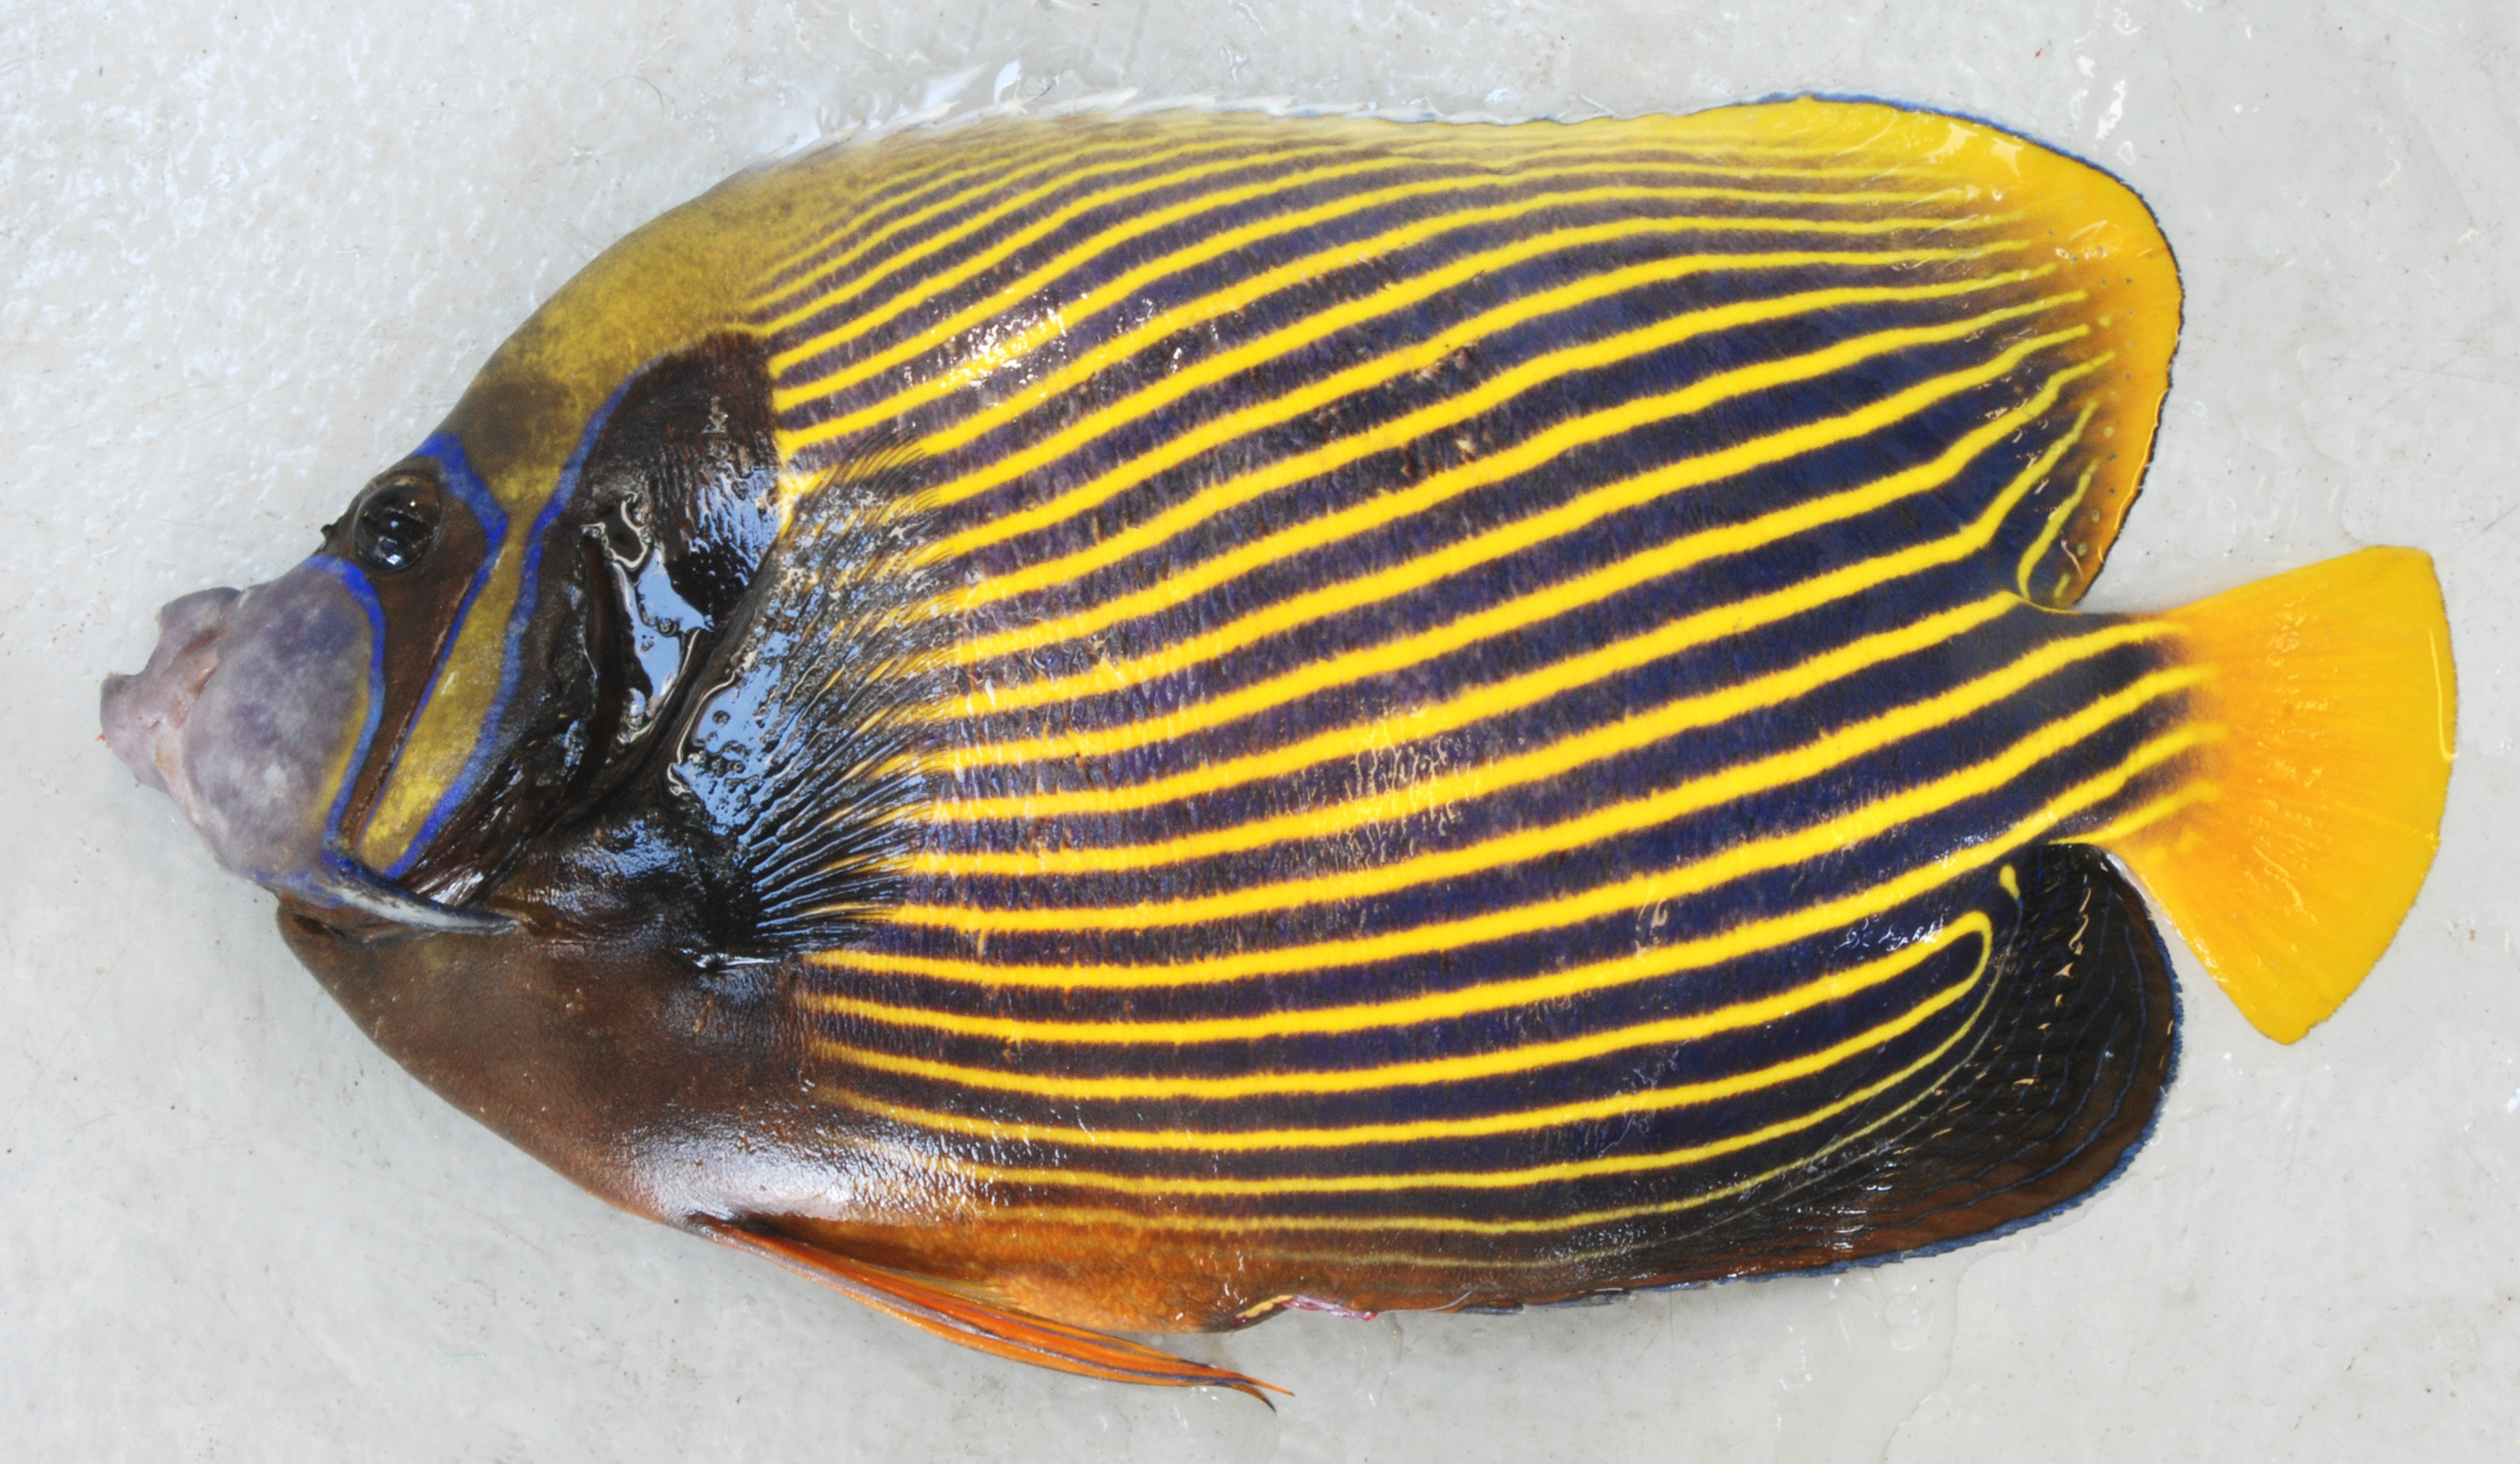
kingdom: Animalia
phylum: Chordata
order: Perciformes
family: Pomacanthidae
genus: Pomacanthus
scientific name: Pomacanthus imperator
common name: Emperor angelfish
